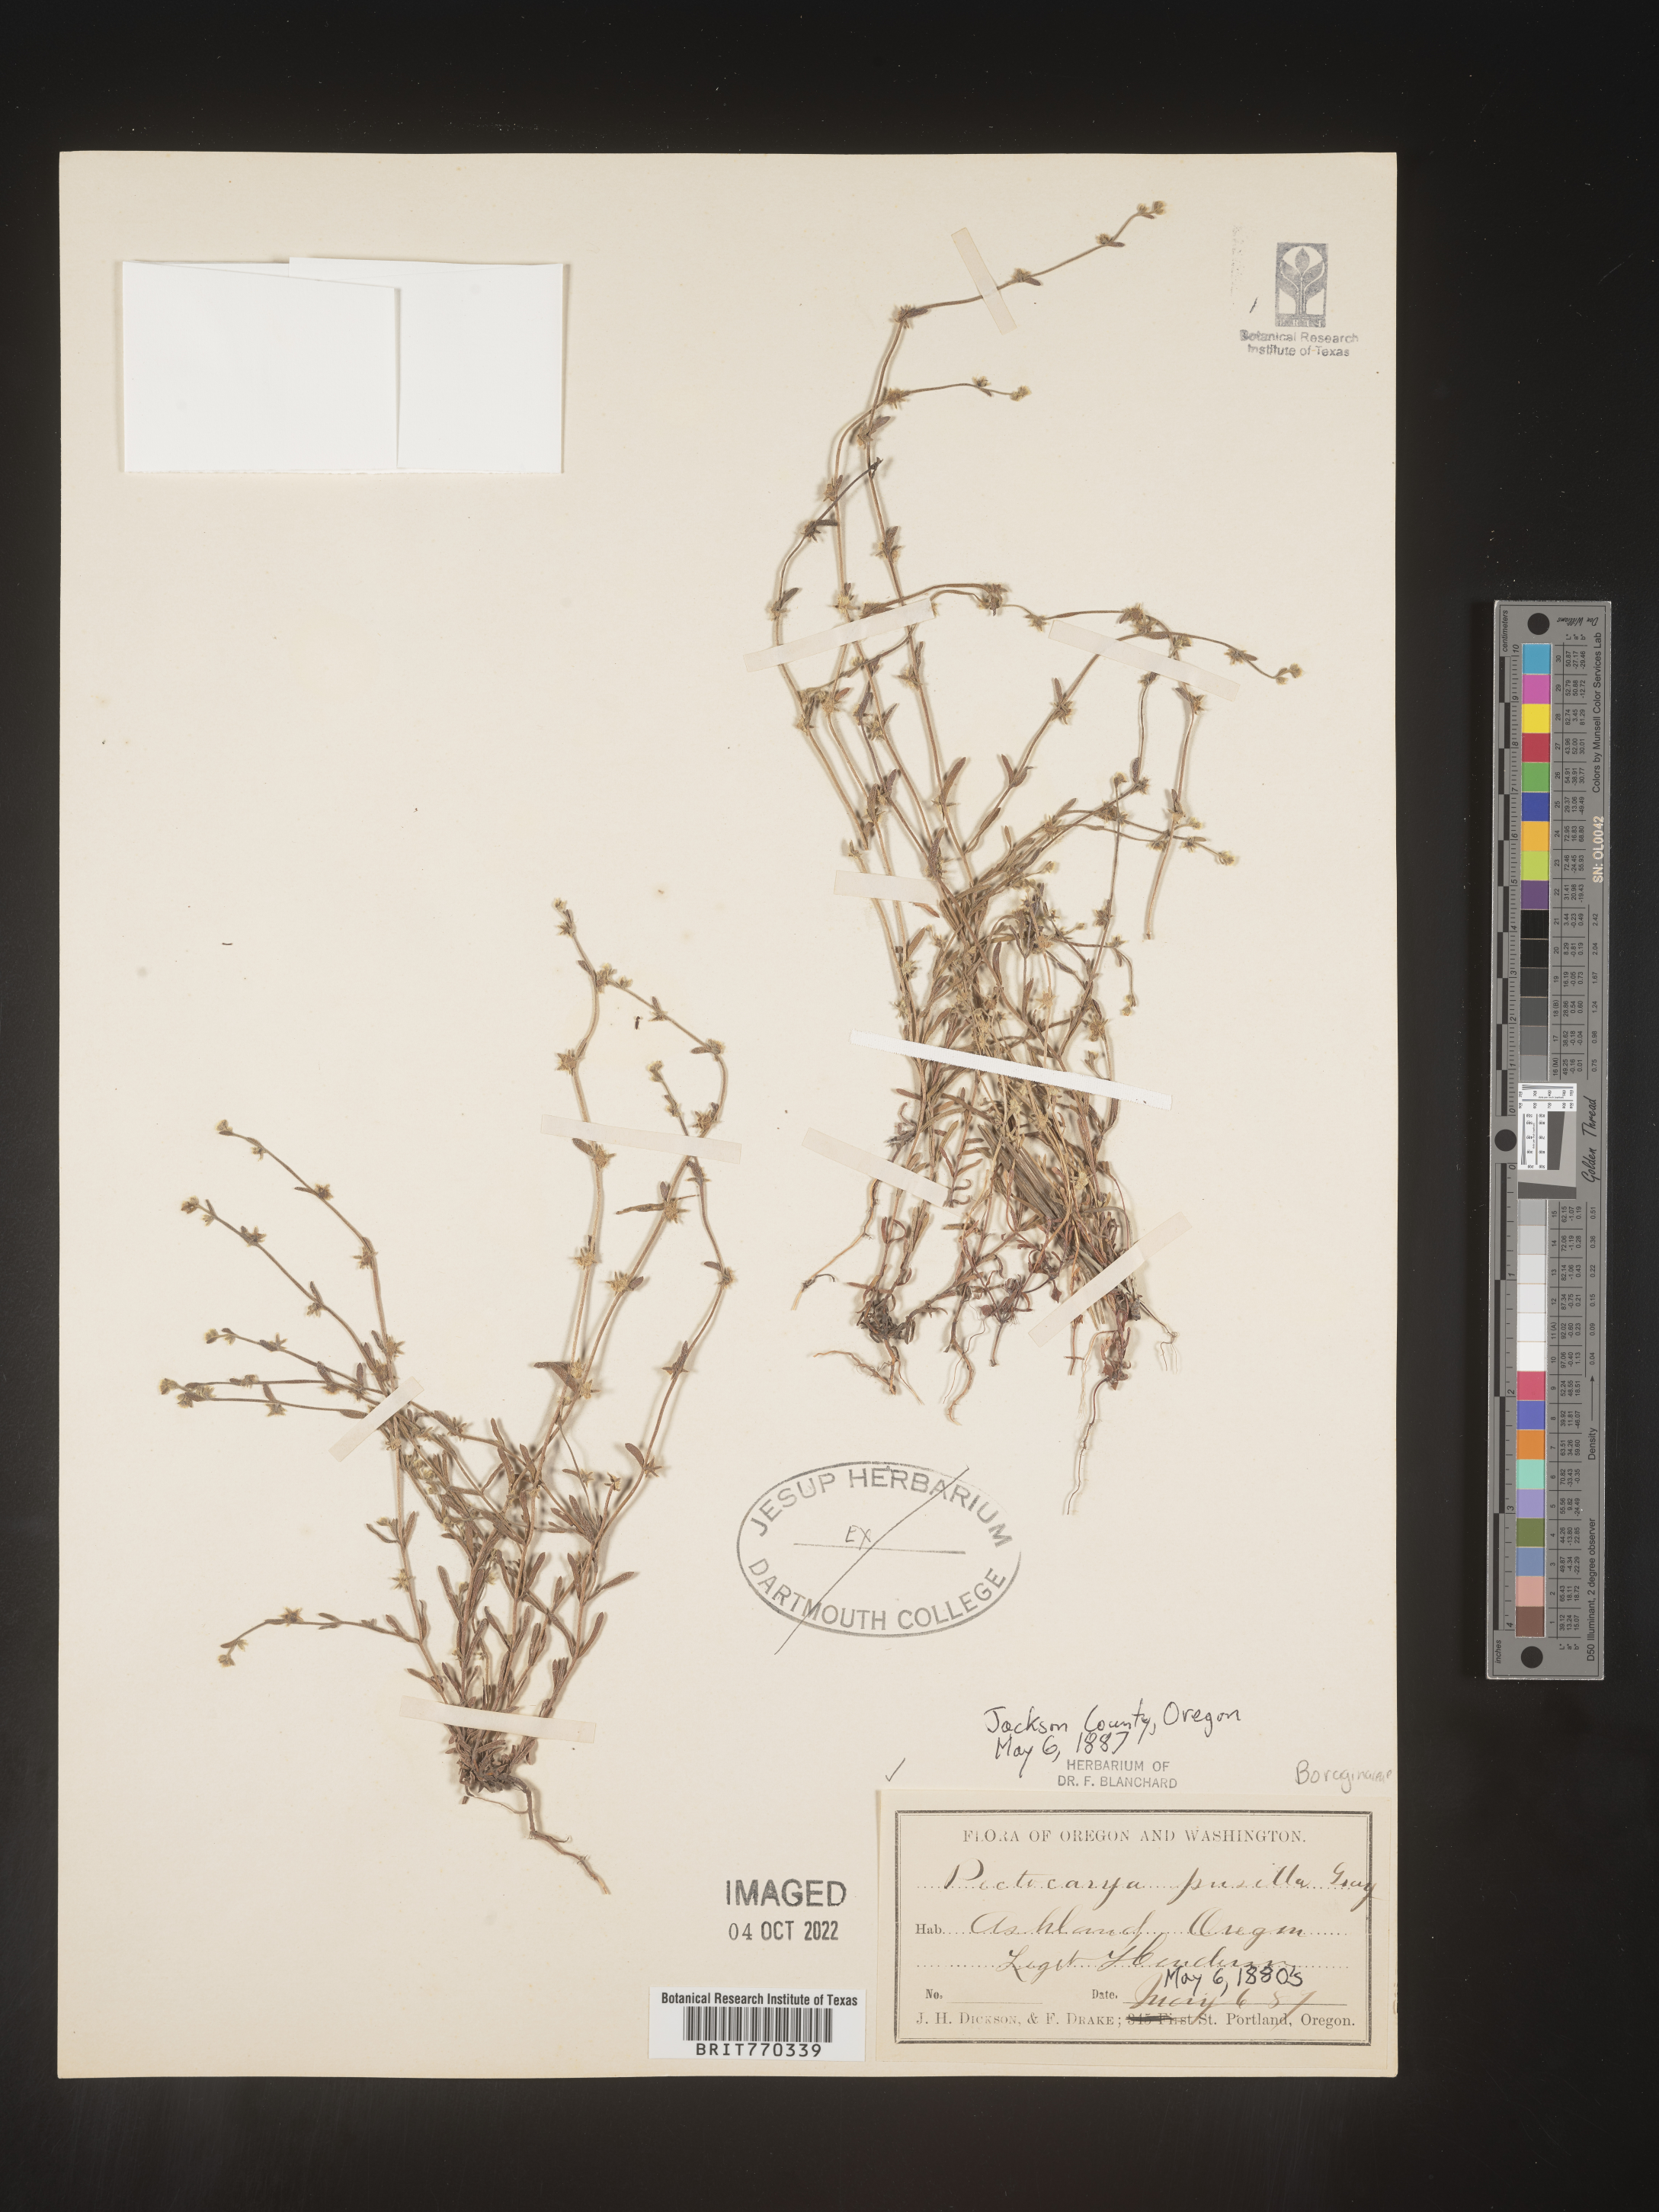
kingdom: Plantae
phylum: Tracheophyta
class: Magnoliopsida
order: Boraginales
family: Boraginaceae
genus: Pectocarya
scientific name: Pectocarya
